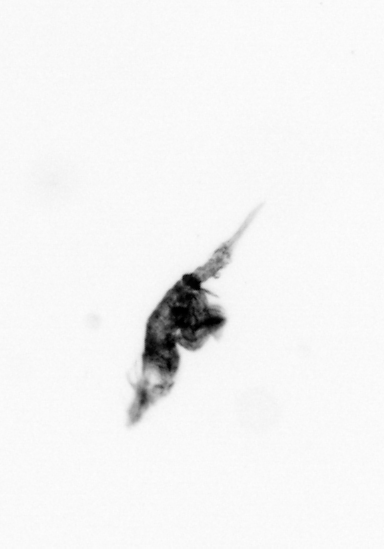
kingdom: Animalia
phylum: Arthropoda
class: Copepoda
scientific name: Copepoda
